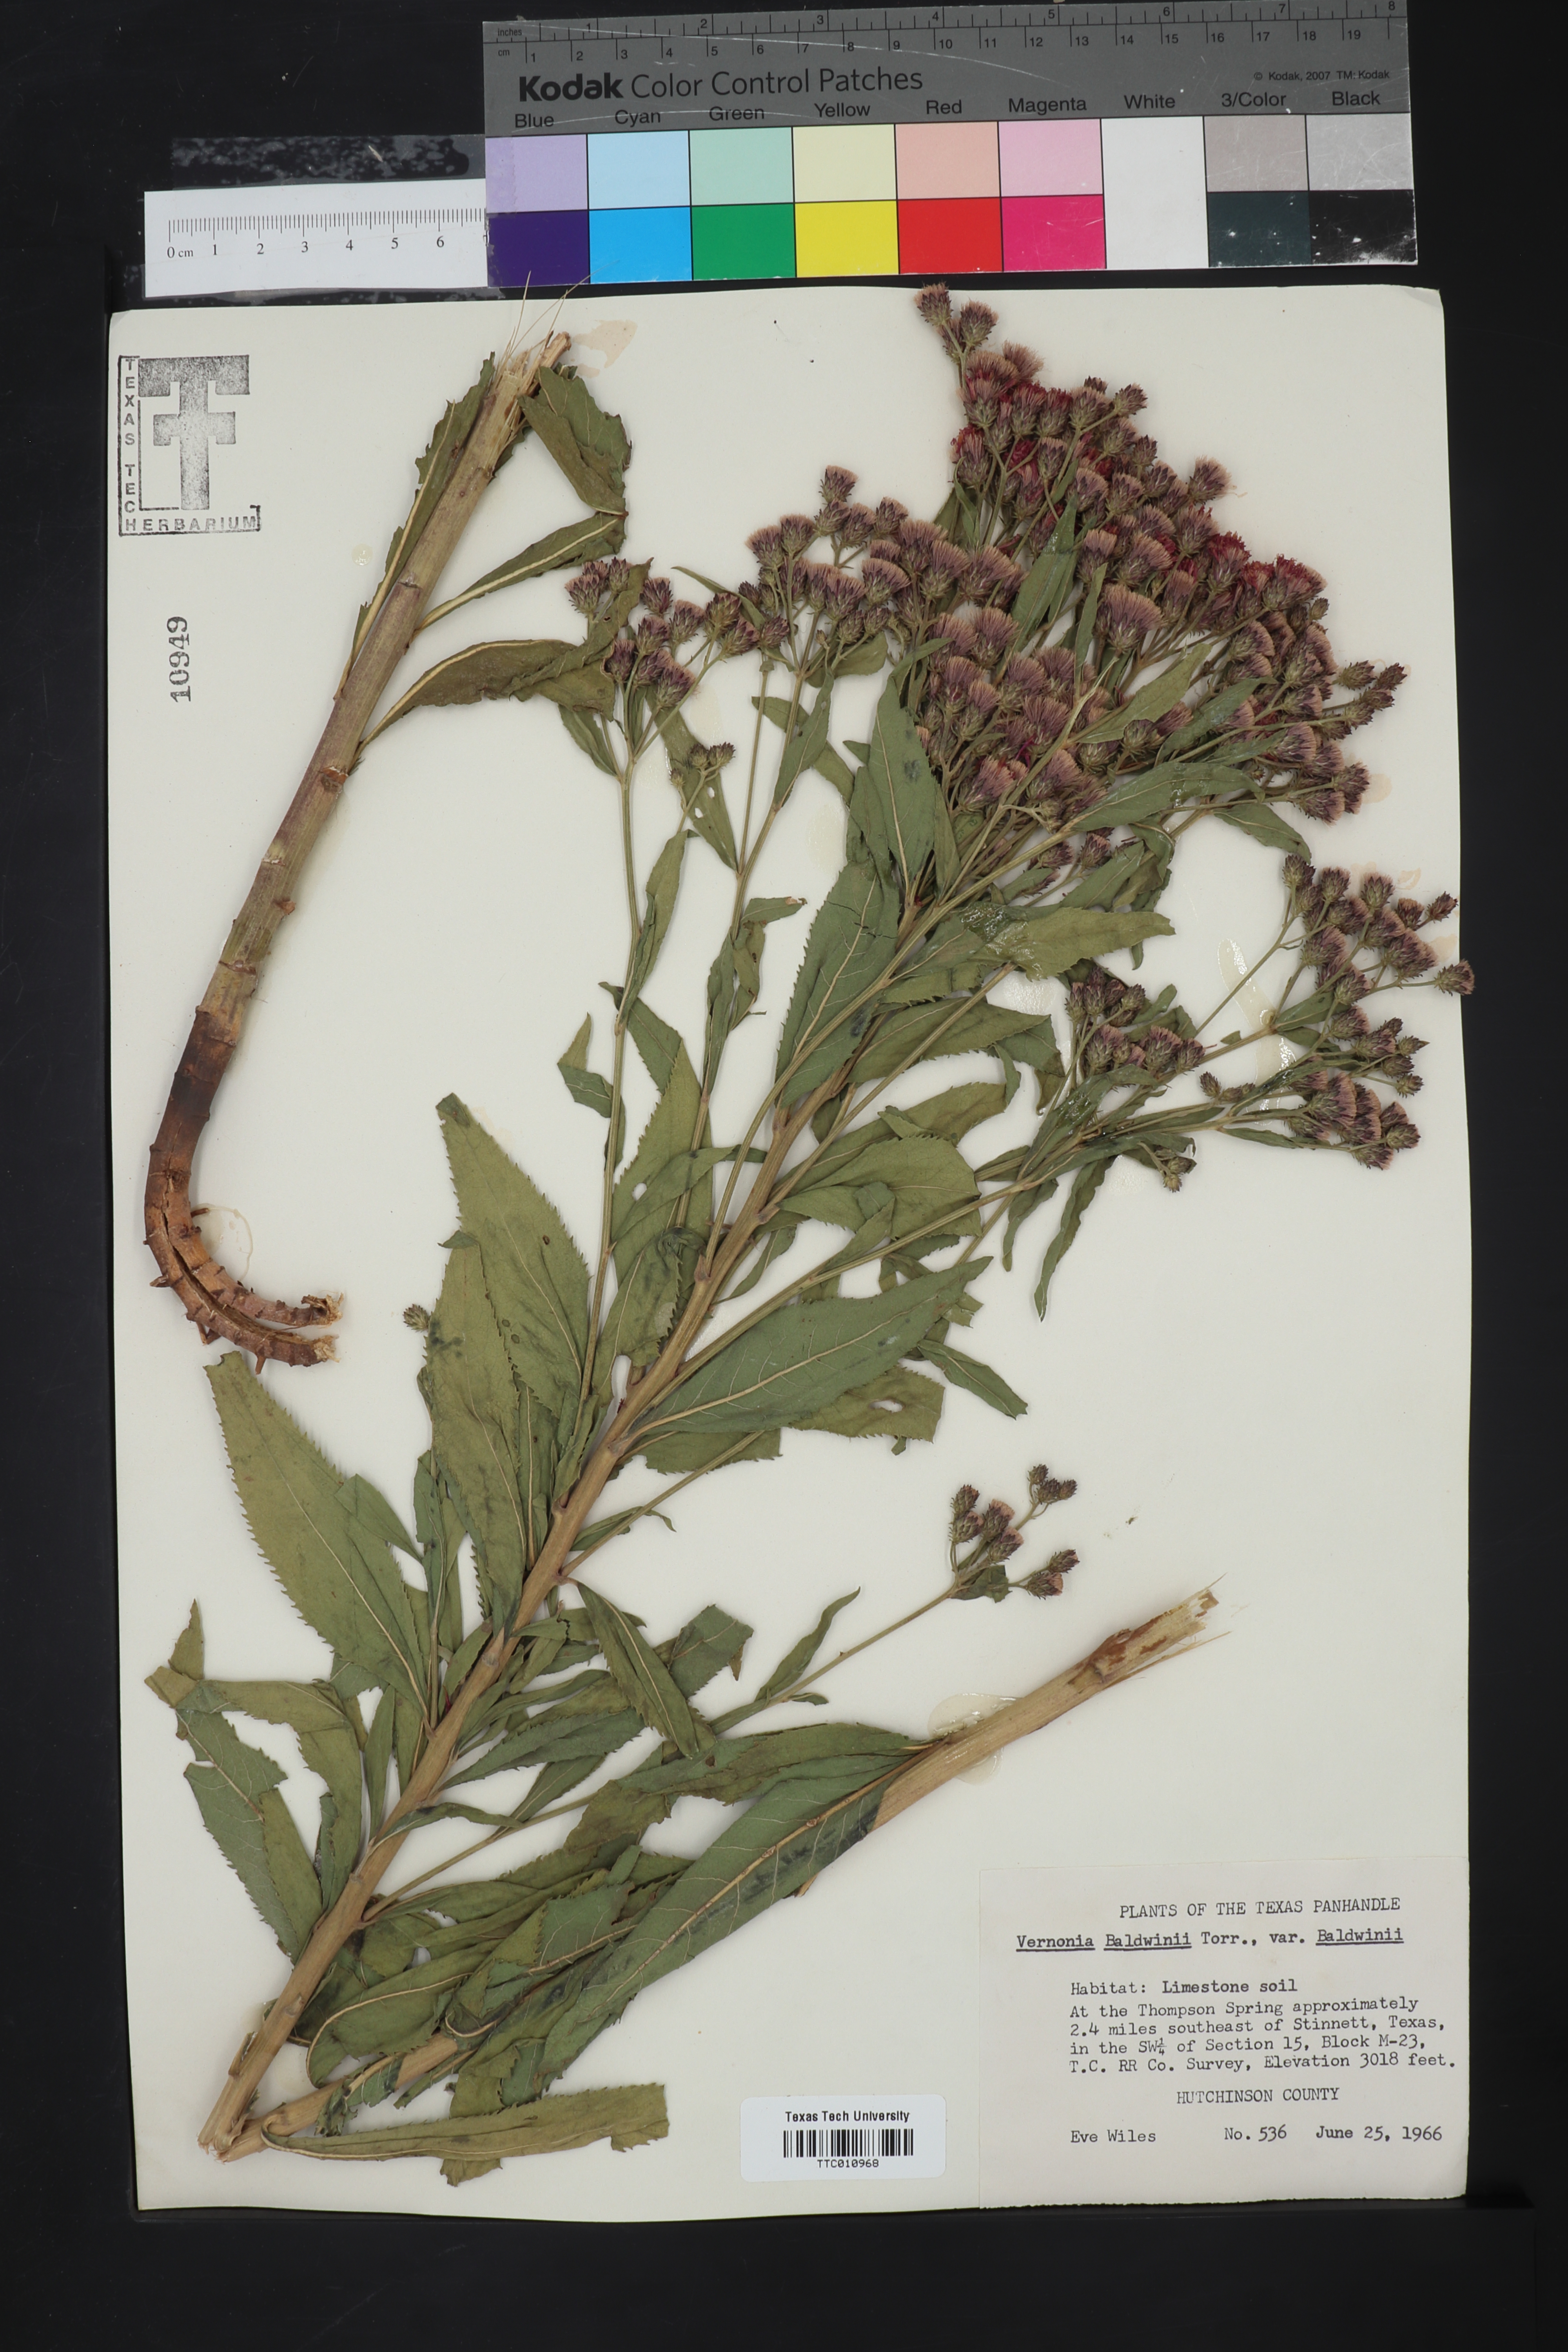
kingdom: Plantae
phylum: Tracheophyta
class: Magnoliopsida
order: Asterales
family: Asteraceae
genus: Vernonia
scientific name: Vernonia baldwinii
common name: Western ironweed
